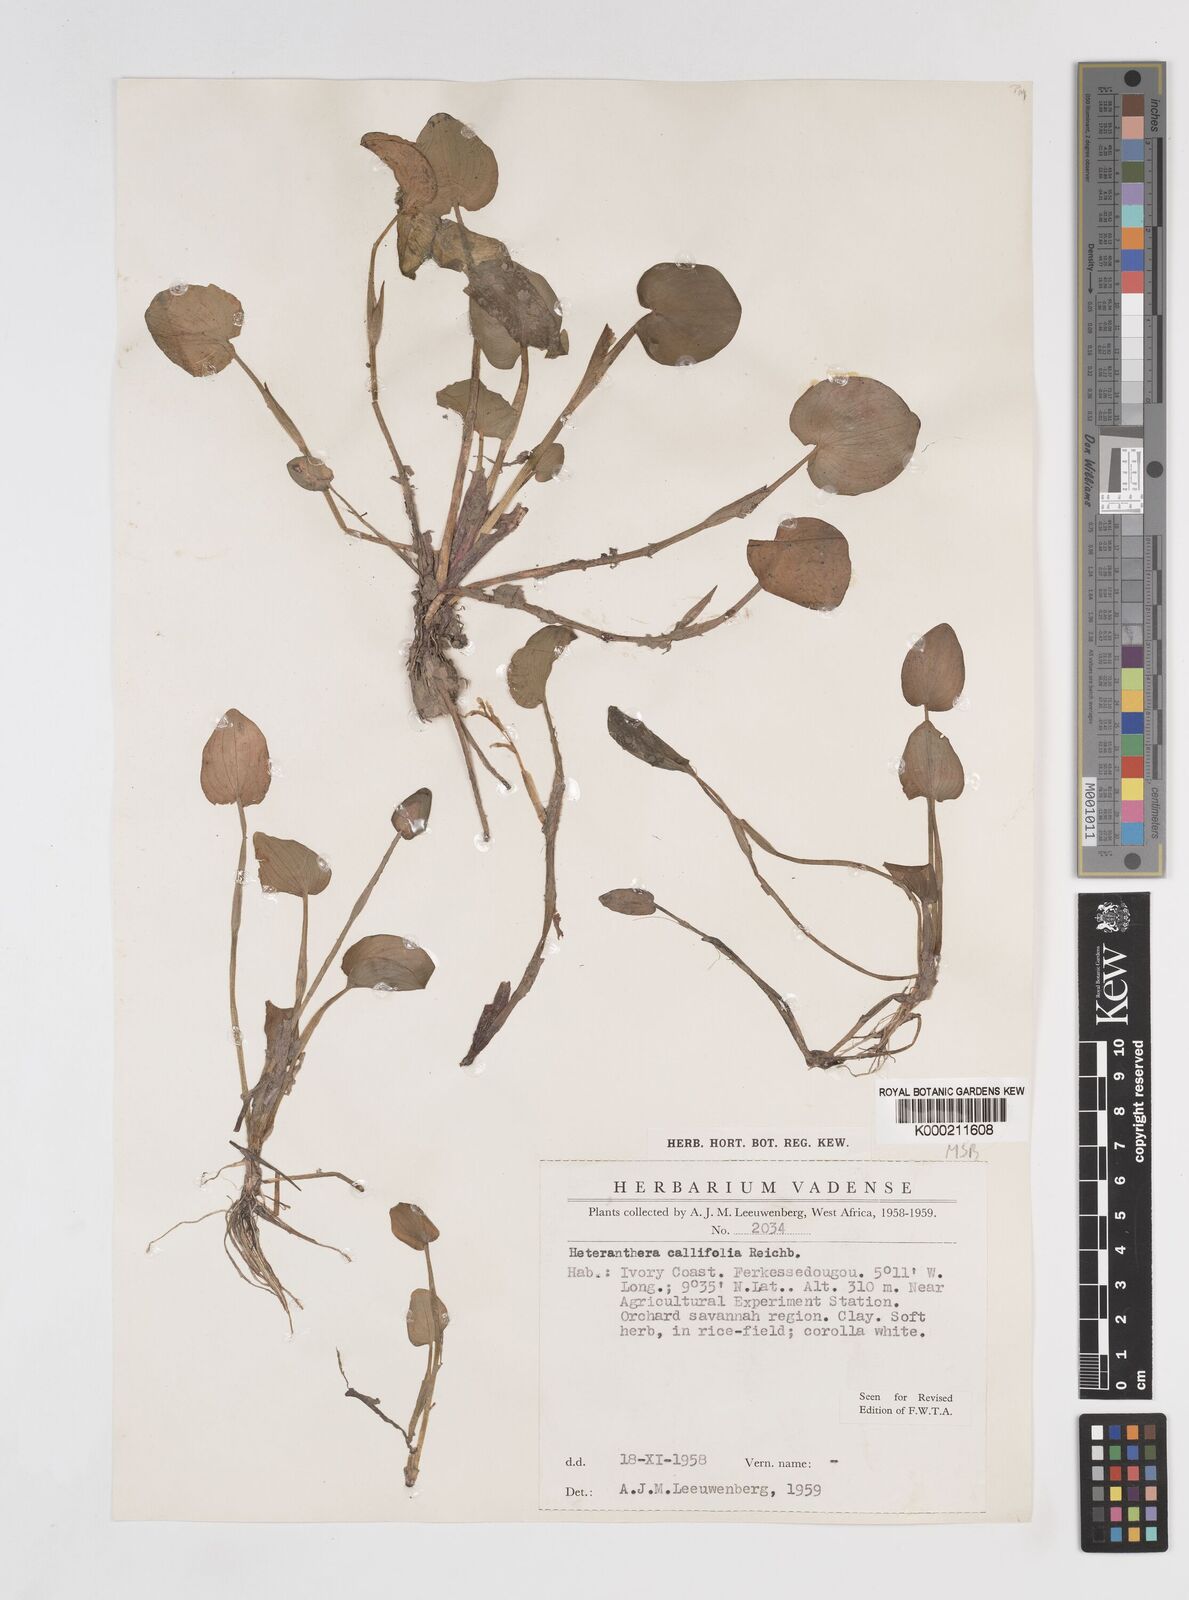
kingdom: Plantae
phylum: Tracheophyta
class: Liliopsida
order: Commelinales
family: Pontederiaceae
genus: Heteranthera
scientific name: Heteranthera callifolia
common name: Mud plantain
